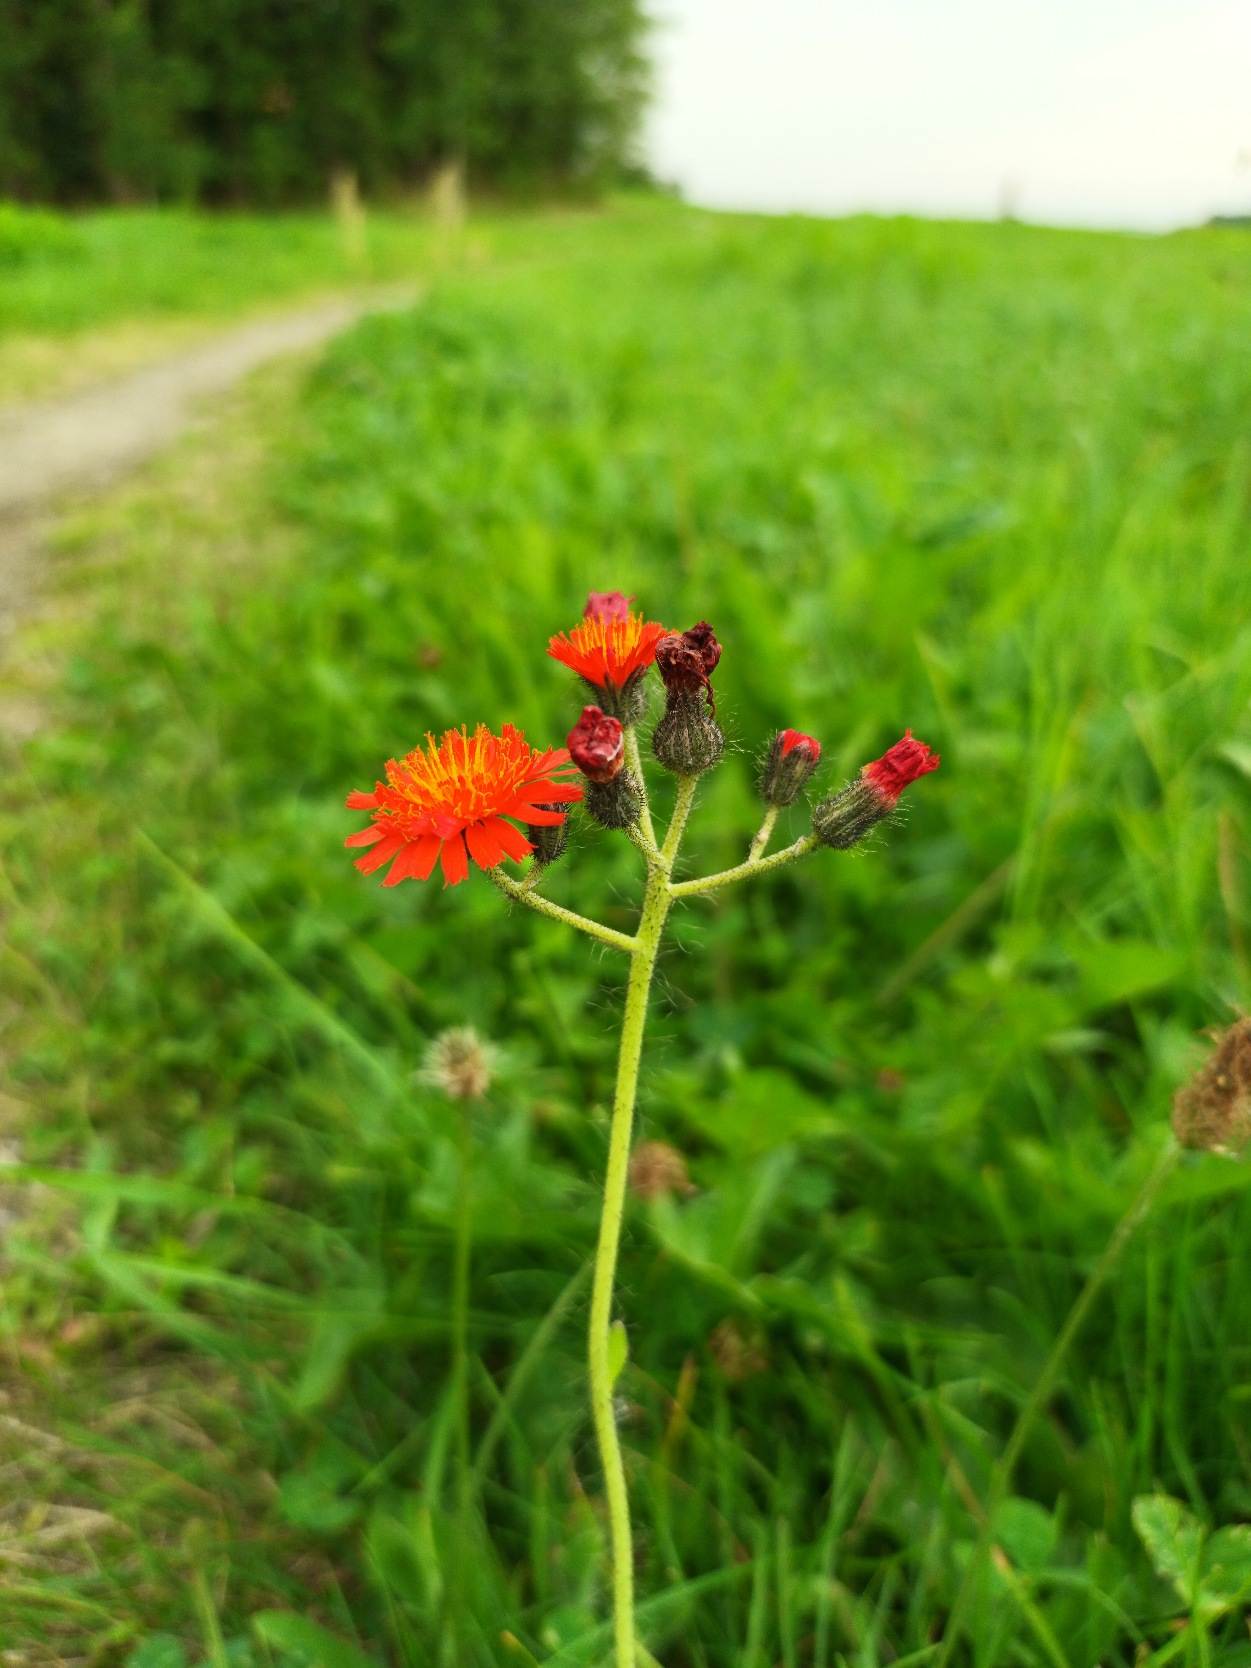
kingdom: Plantae
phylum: Tracheophyta
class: Magnoliopsida
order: Asterales
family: Asteraceae
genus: Pilosella
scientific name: Pilosella aurantiaca
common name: Pomerans-høgeurt
